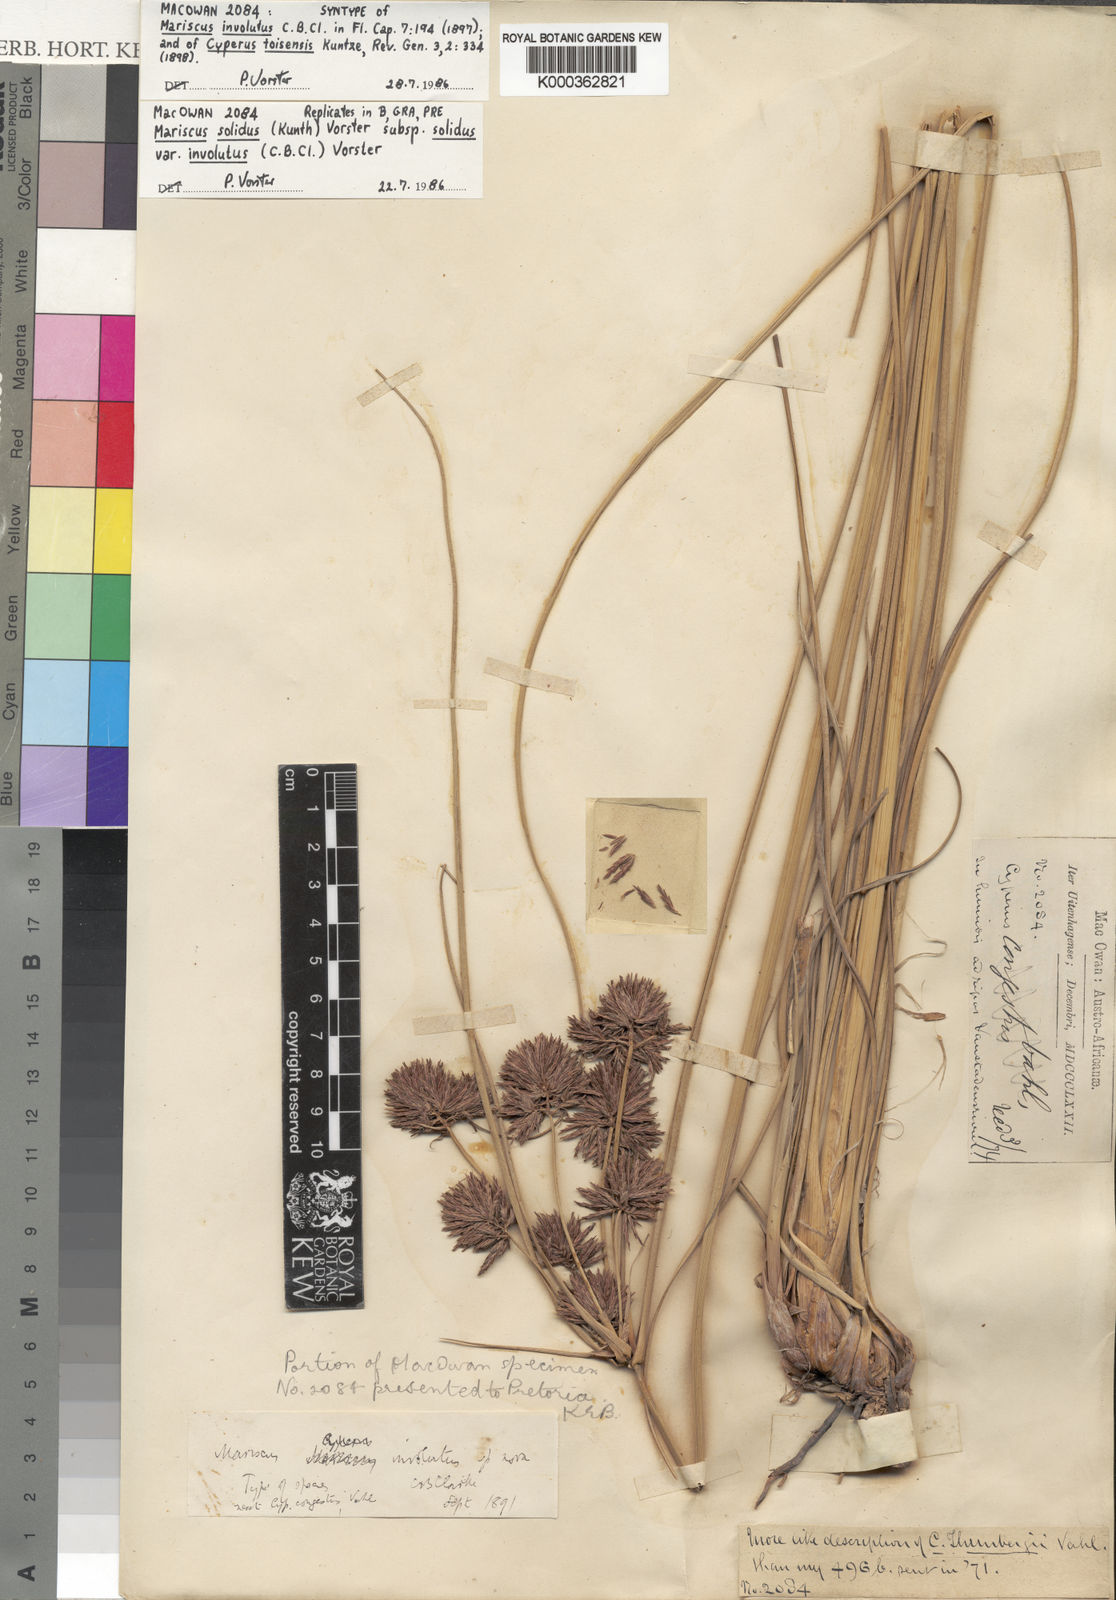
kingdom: Plantae
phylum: Tracheophyta
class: Liliopsida
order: Poales
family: Cyperaceae
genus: Cyperus
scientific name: Cyperus dactyliformis
